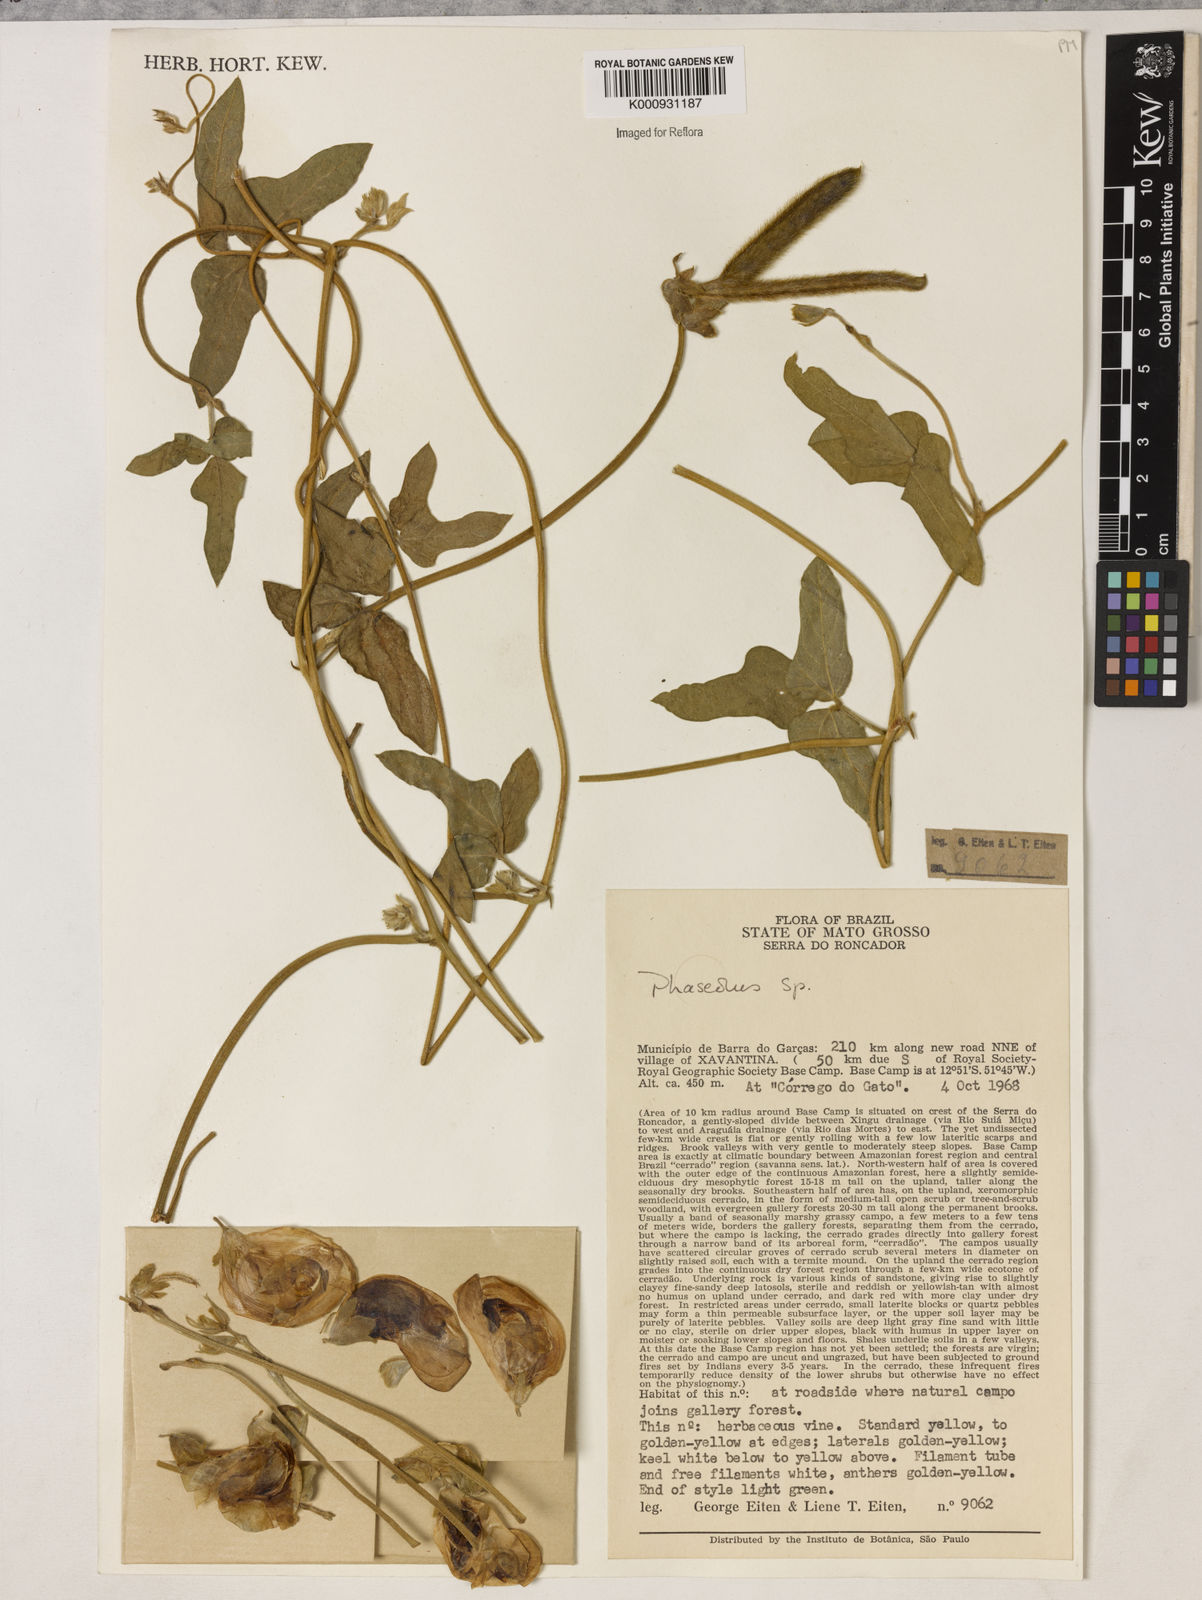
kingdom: Plantae
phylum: Tracheophyta
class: Magnoliopsida
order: Fabales
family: Fabaceae
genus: Vigna
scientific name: Vigna lasiocarpa
